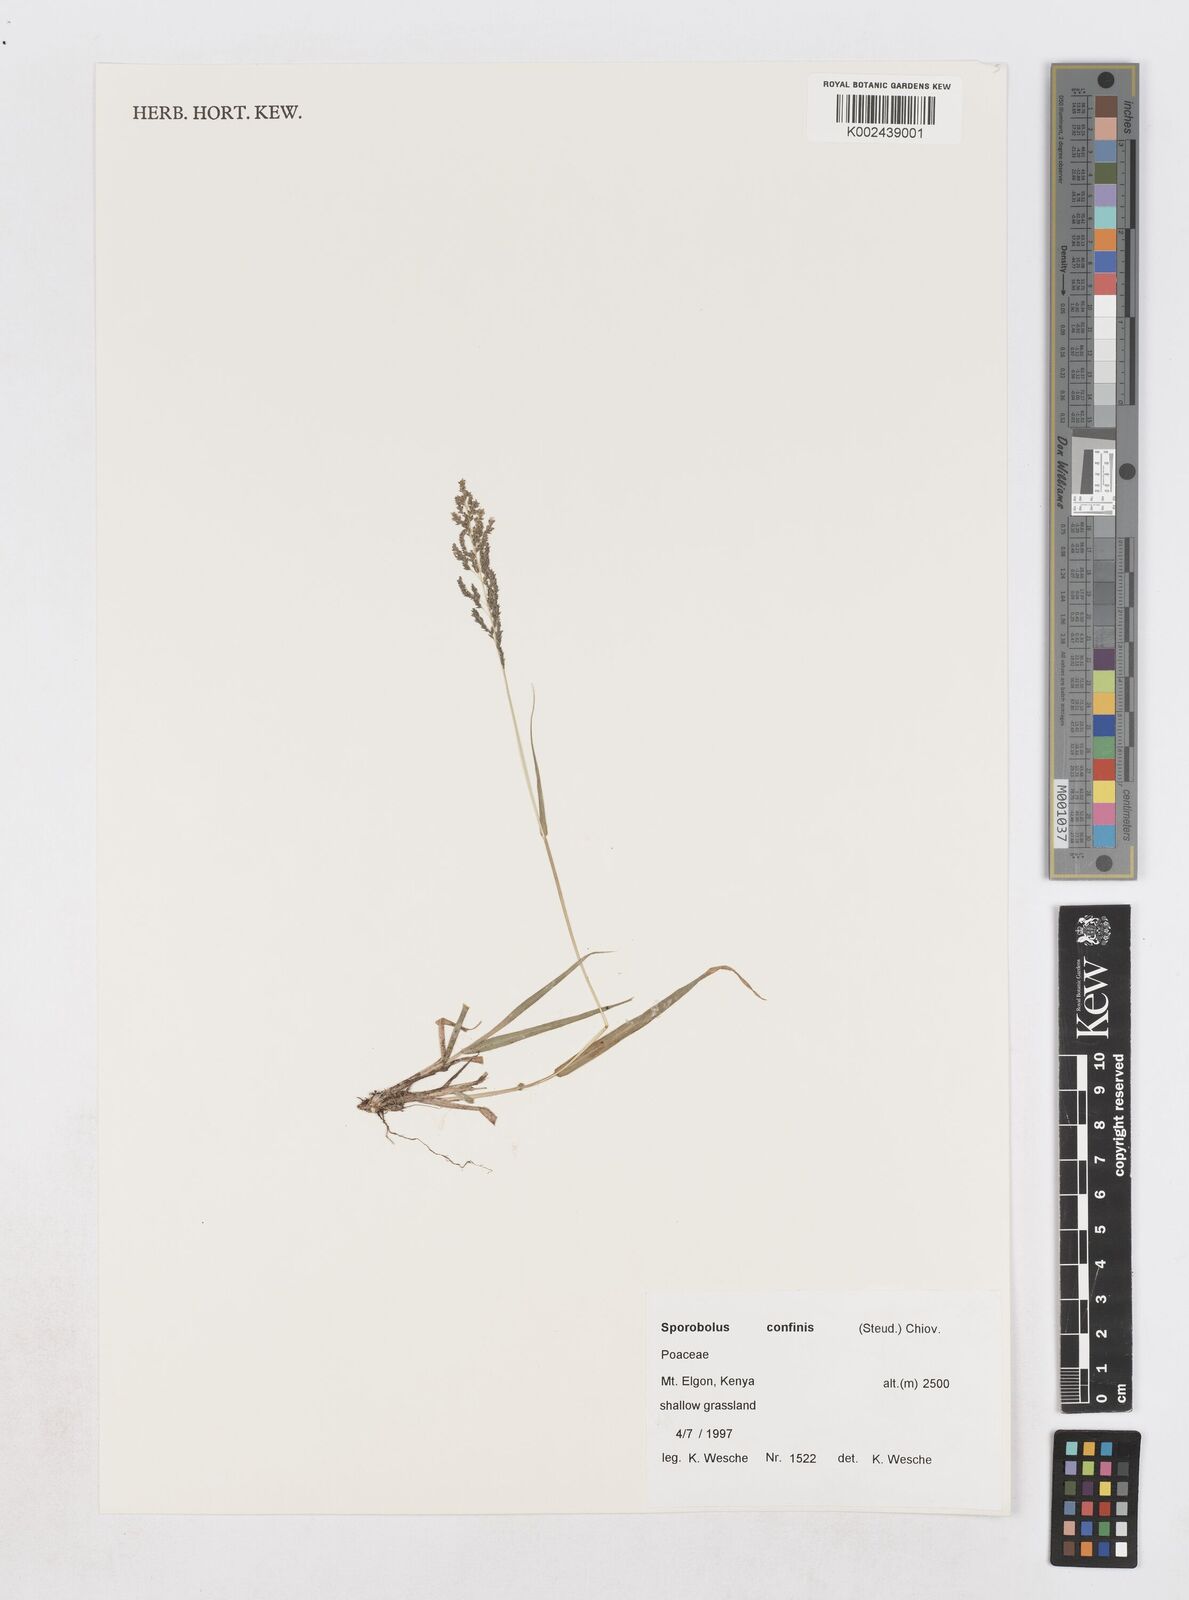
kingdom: Plantae
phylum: Tracheophyta
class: Liliopsida
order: Poales
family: Poaceae
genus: Sporobolus
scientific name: Sporobolus confinis
